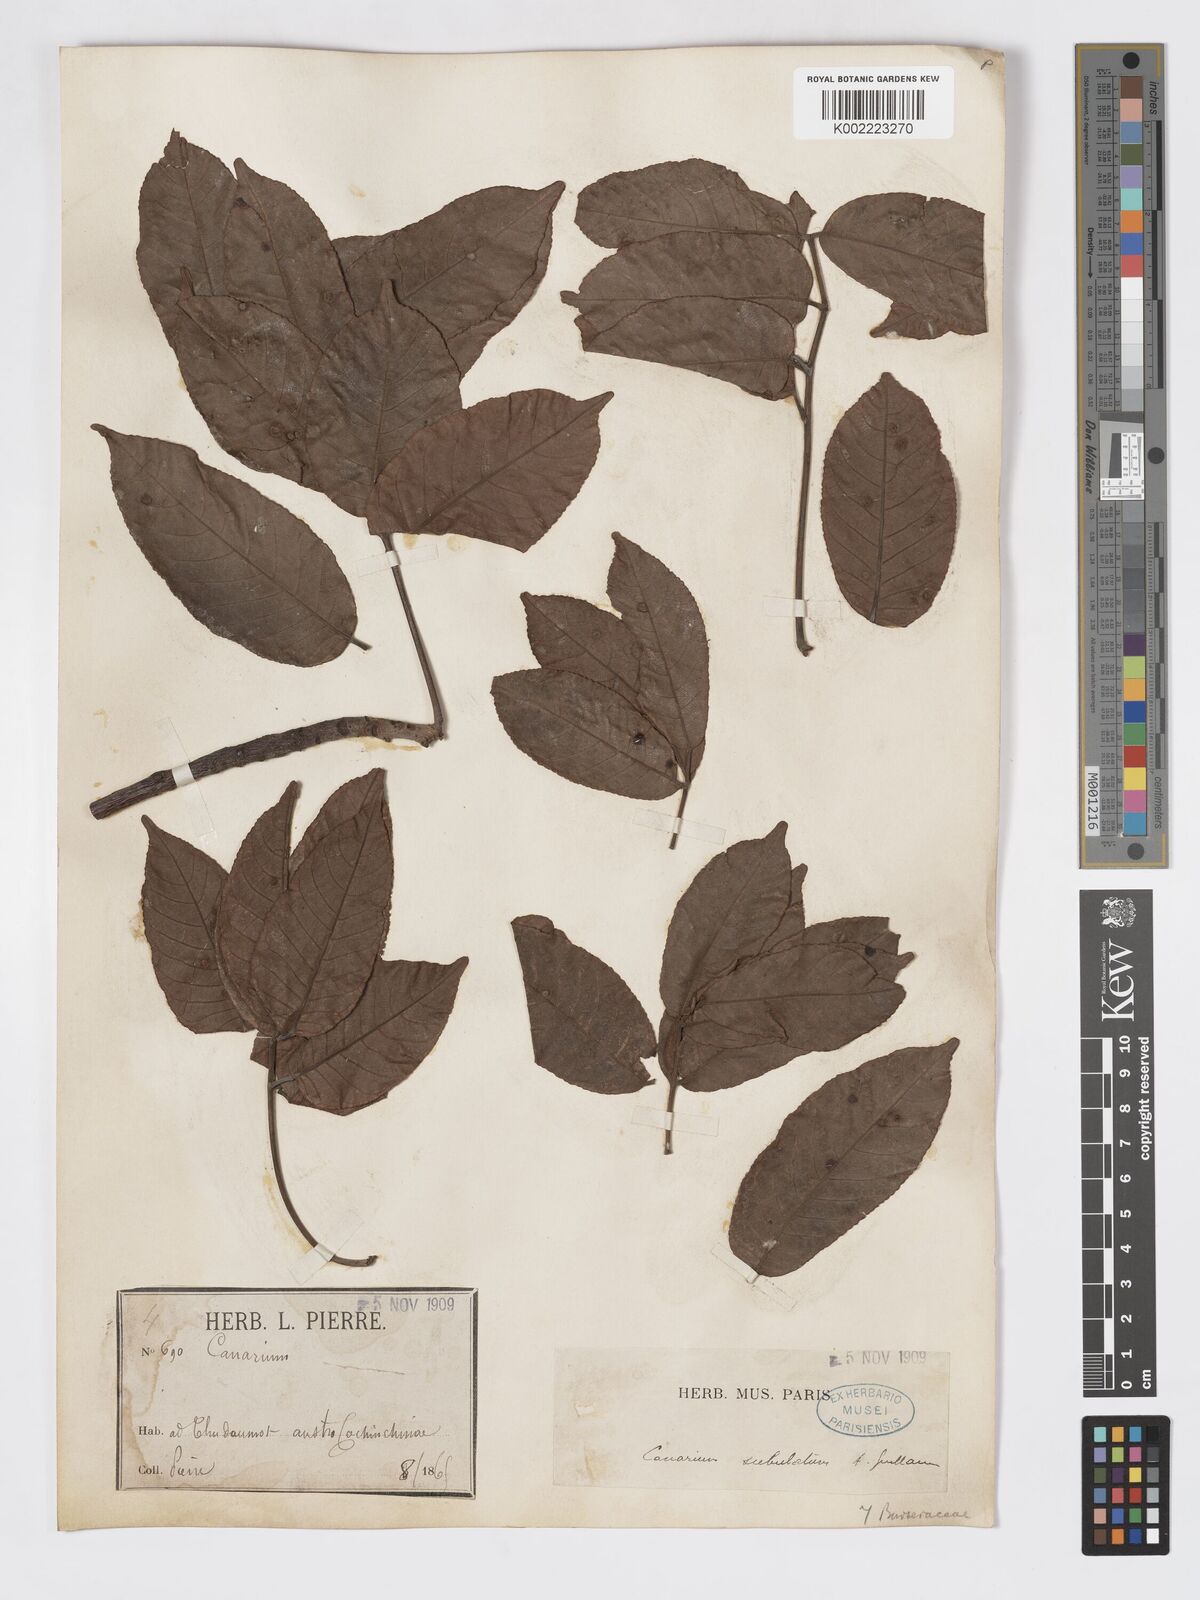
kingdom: Plantae
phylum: Tracheophyta
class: Magnoliopsida
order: Sapindales
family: Burseraceae
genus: Canarium
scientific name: Canarium subulatum
